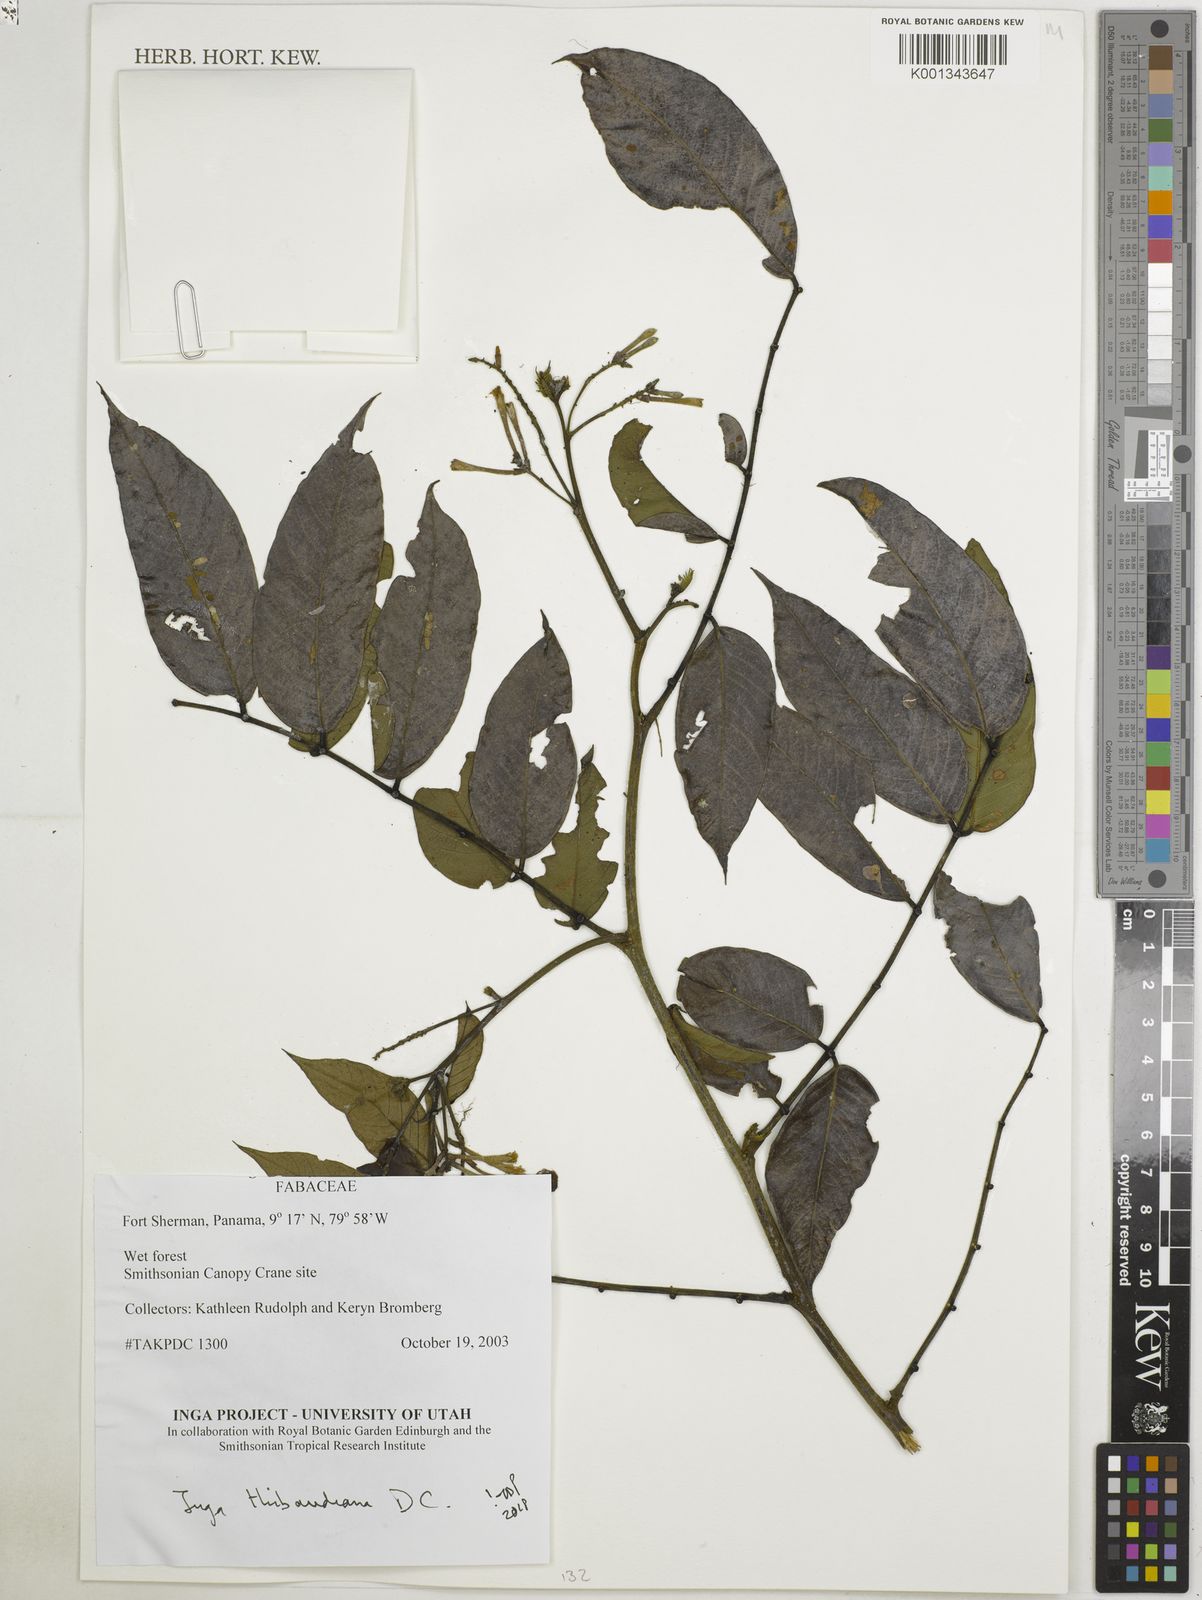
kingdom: Plantae
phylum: Tracheophyta
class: Magnoliopsida
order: Fabales
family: Fabaceae
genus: Inga
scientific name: Inga thibaudiana
